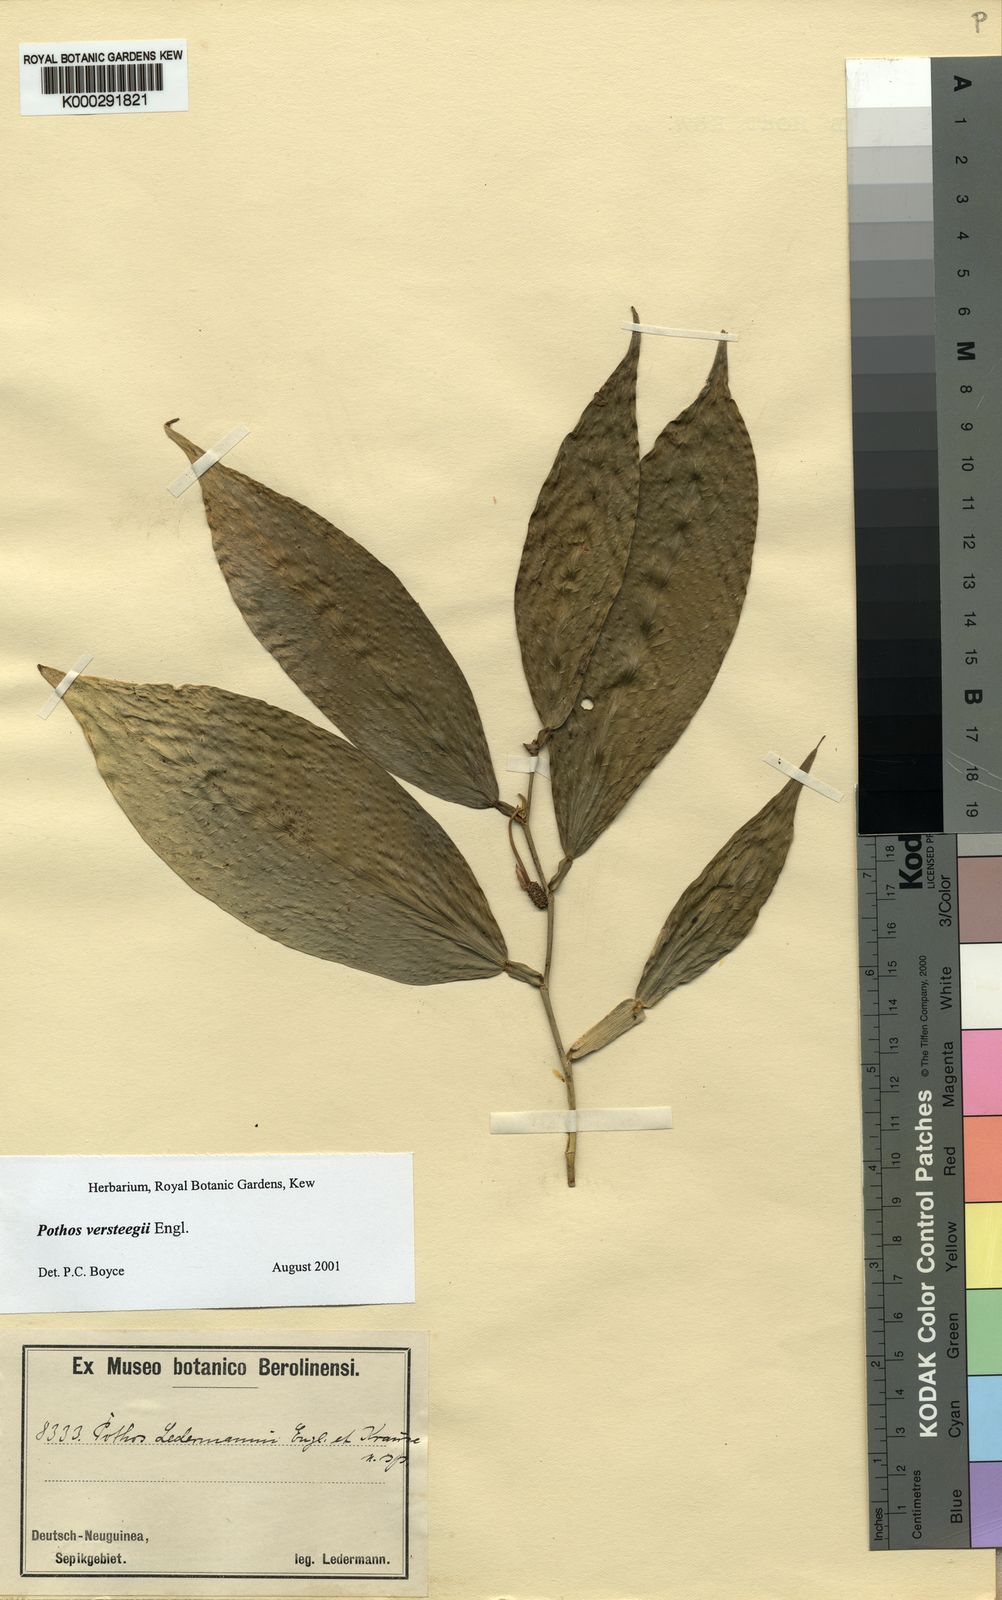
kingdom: Plantae
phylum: Tracheophyta
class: Liliopsida
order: Alismatales
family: Araceae
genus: Pothos
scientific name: Pothos zippelii
